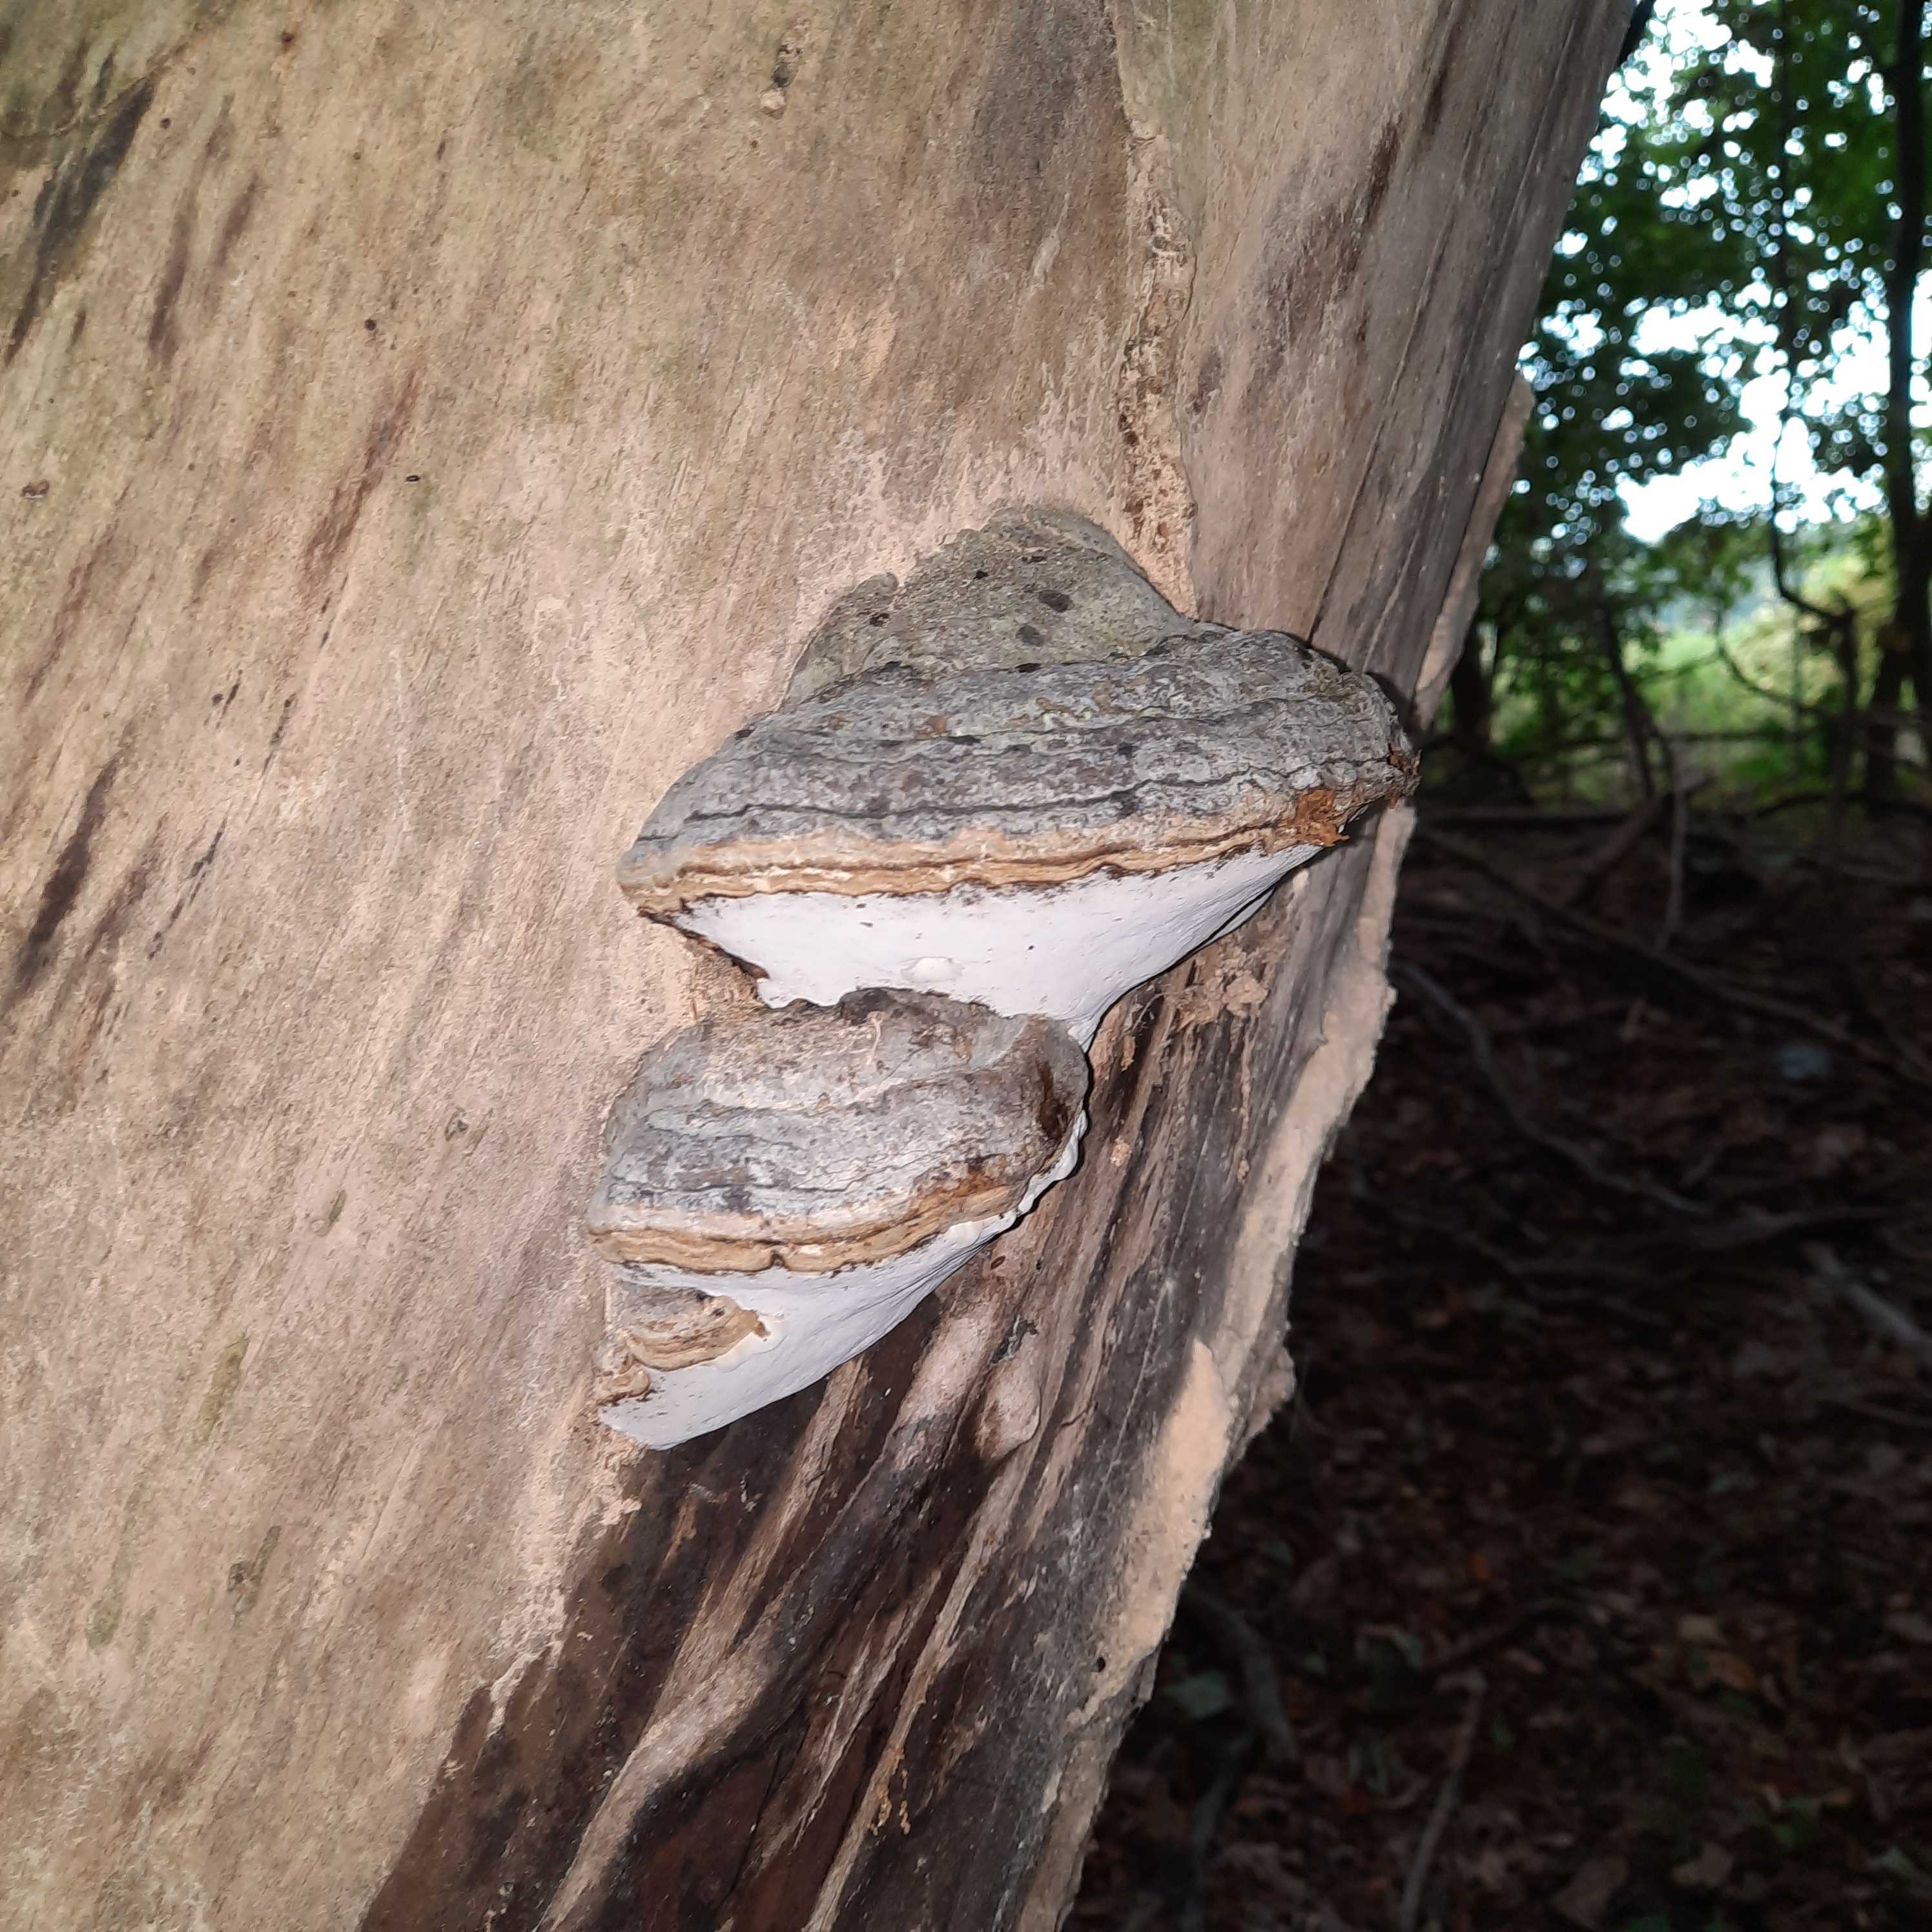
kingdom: Fungi
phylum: Basidiomycota
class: Agaricomycetes
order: Polyporales
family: Polyporaceae
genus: Fomes
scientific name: Fomes fomentarius
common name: tøndersvamp
